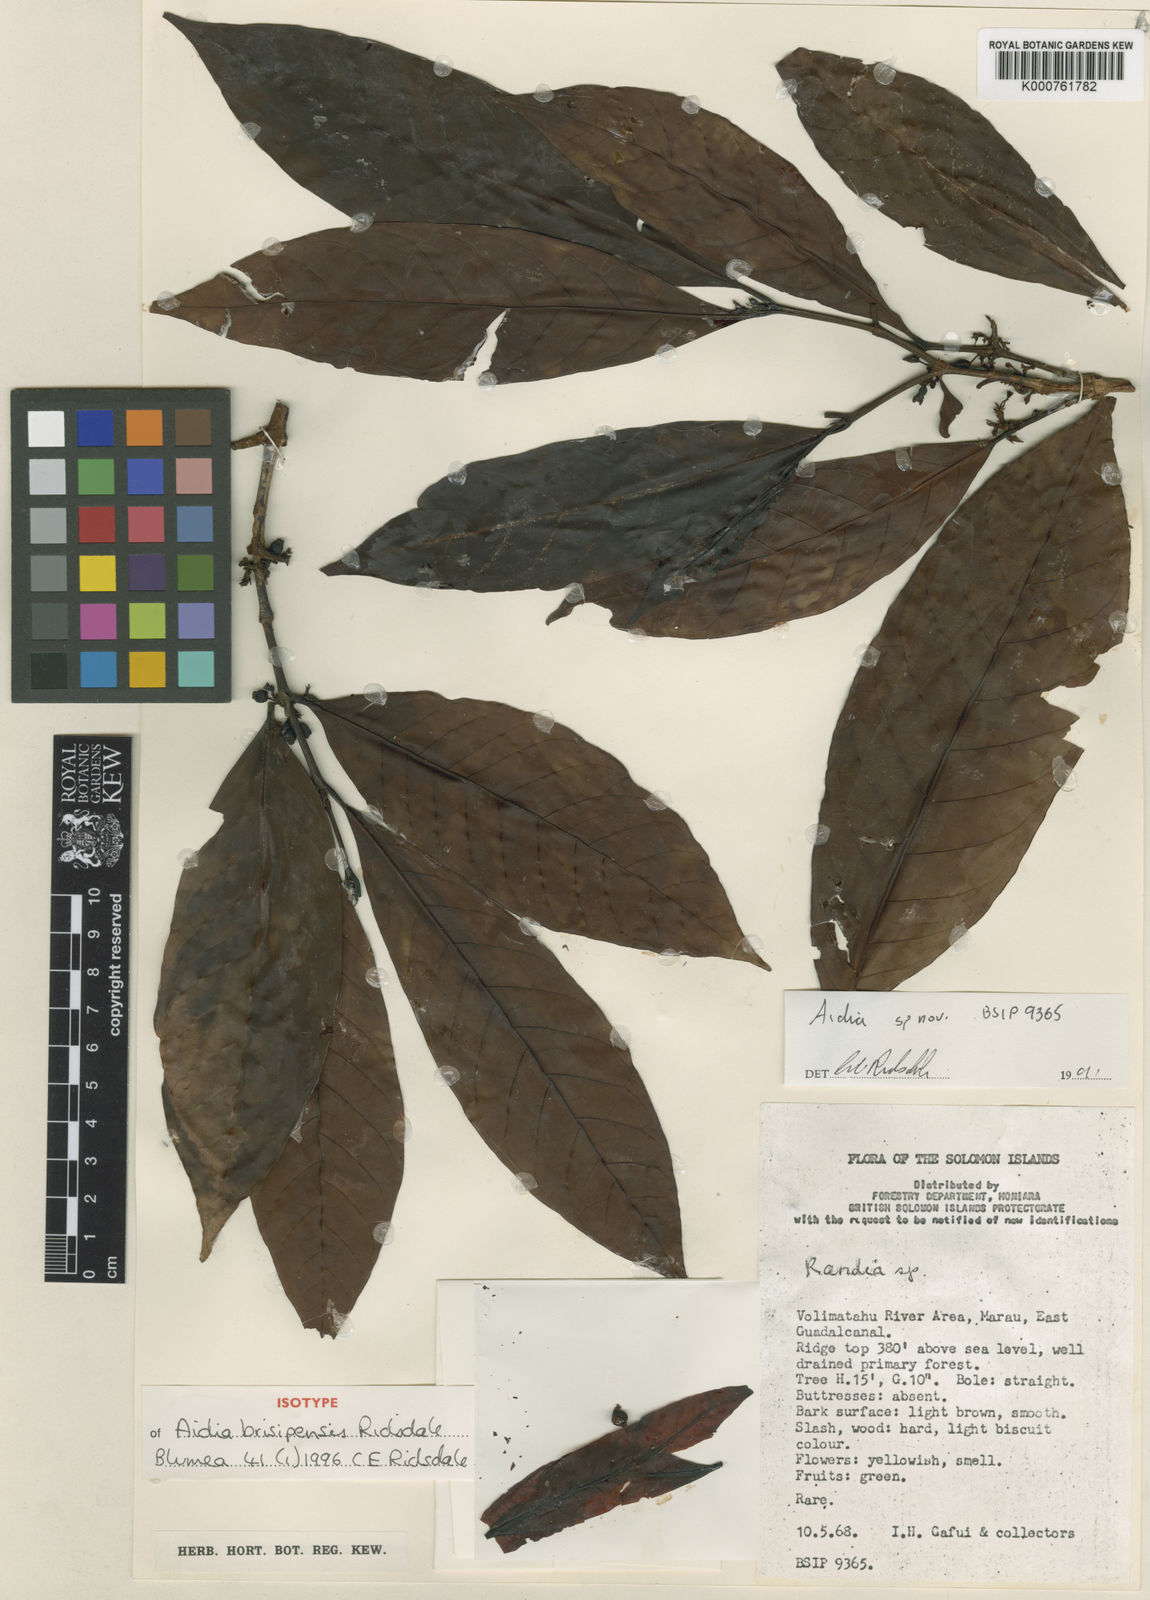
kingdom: Plantae
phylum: Tracheophyta
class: Magnoliopsida
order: Gentianales
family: Rubiaceae
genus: Aidia
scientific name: Aidia brisipensis
